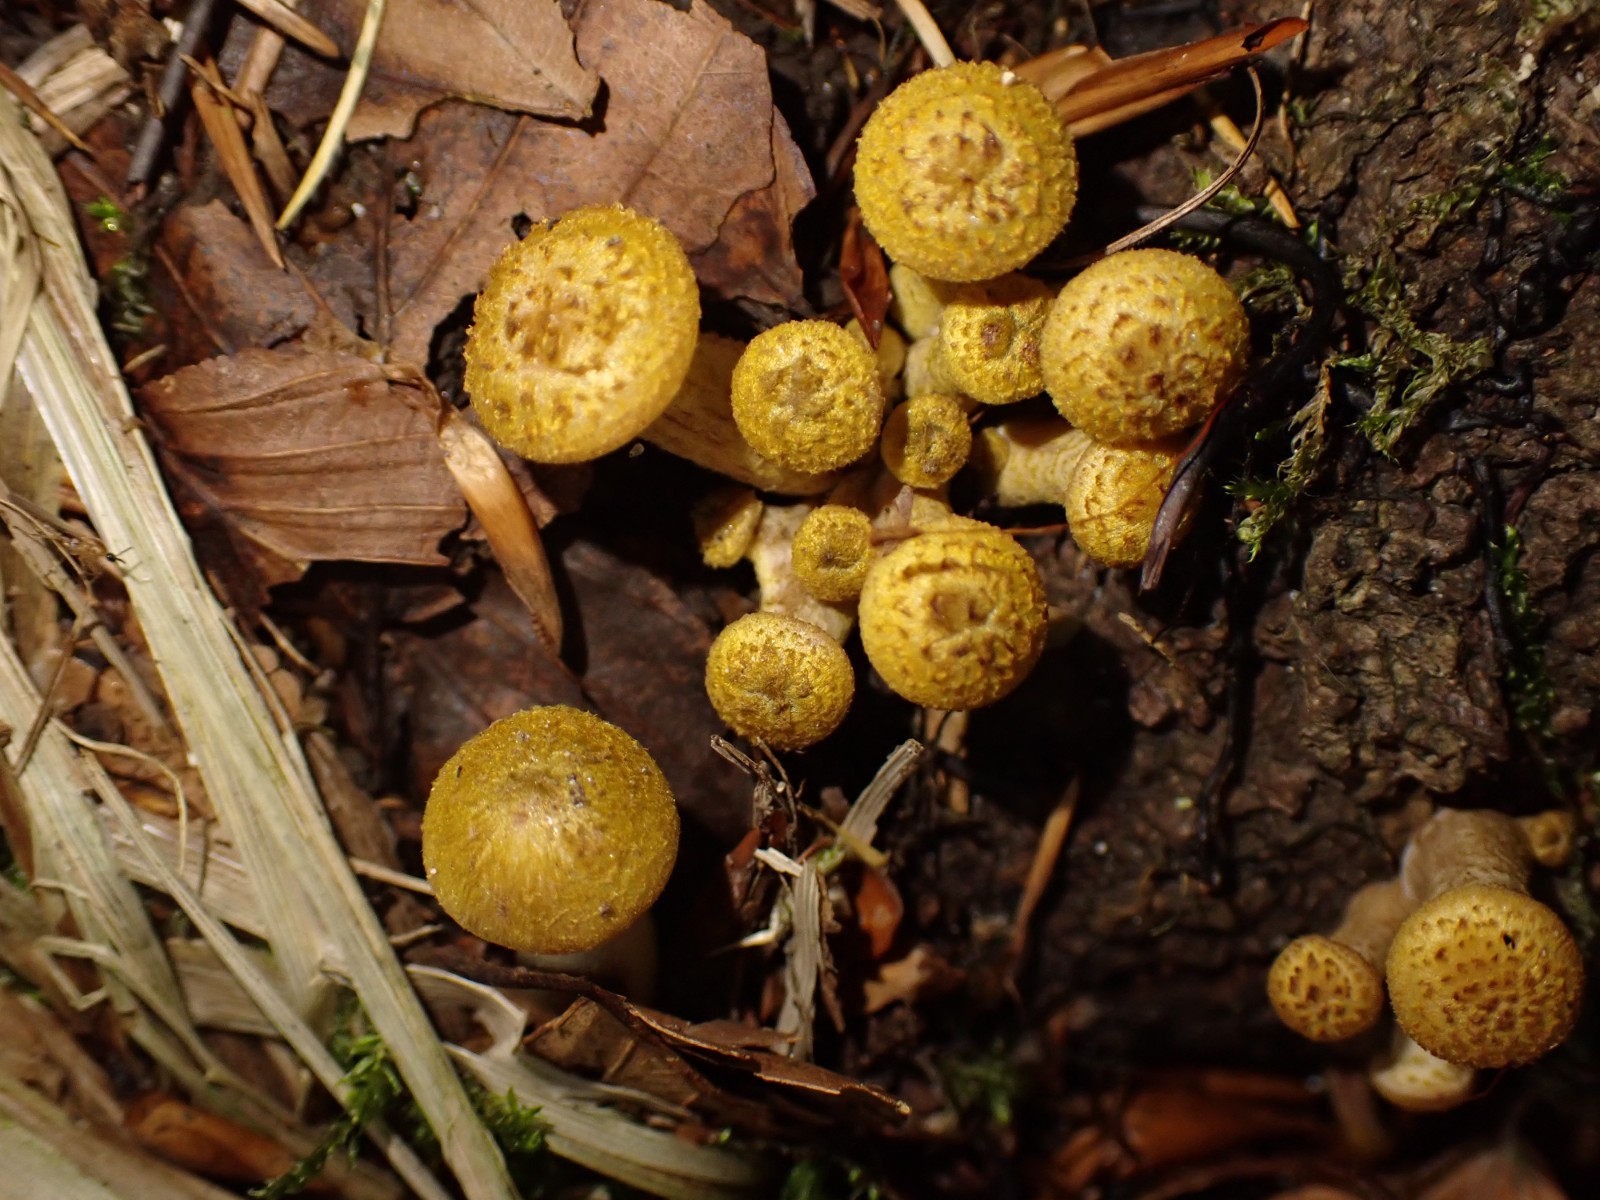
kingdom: Fungi
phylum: Basidiomycota
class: Agaricomycetes
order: Agaricales
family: Physalacriaceae
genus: Armillaria
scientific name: Armillaria mellea
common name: ægte honningsvamp
